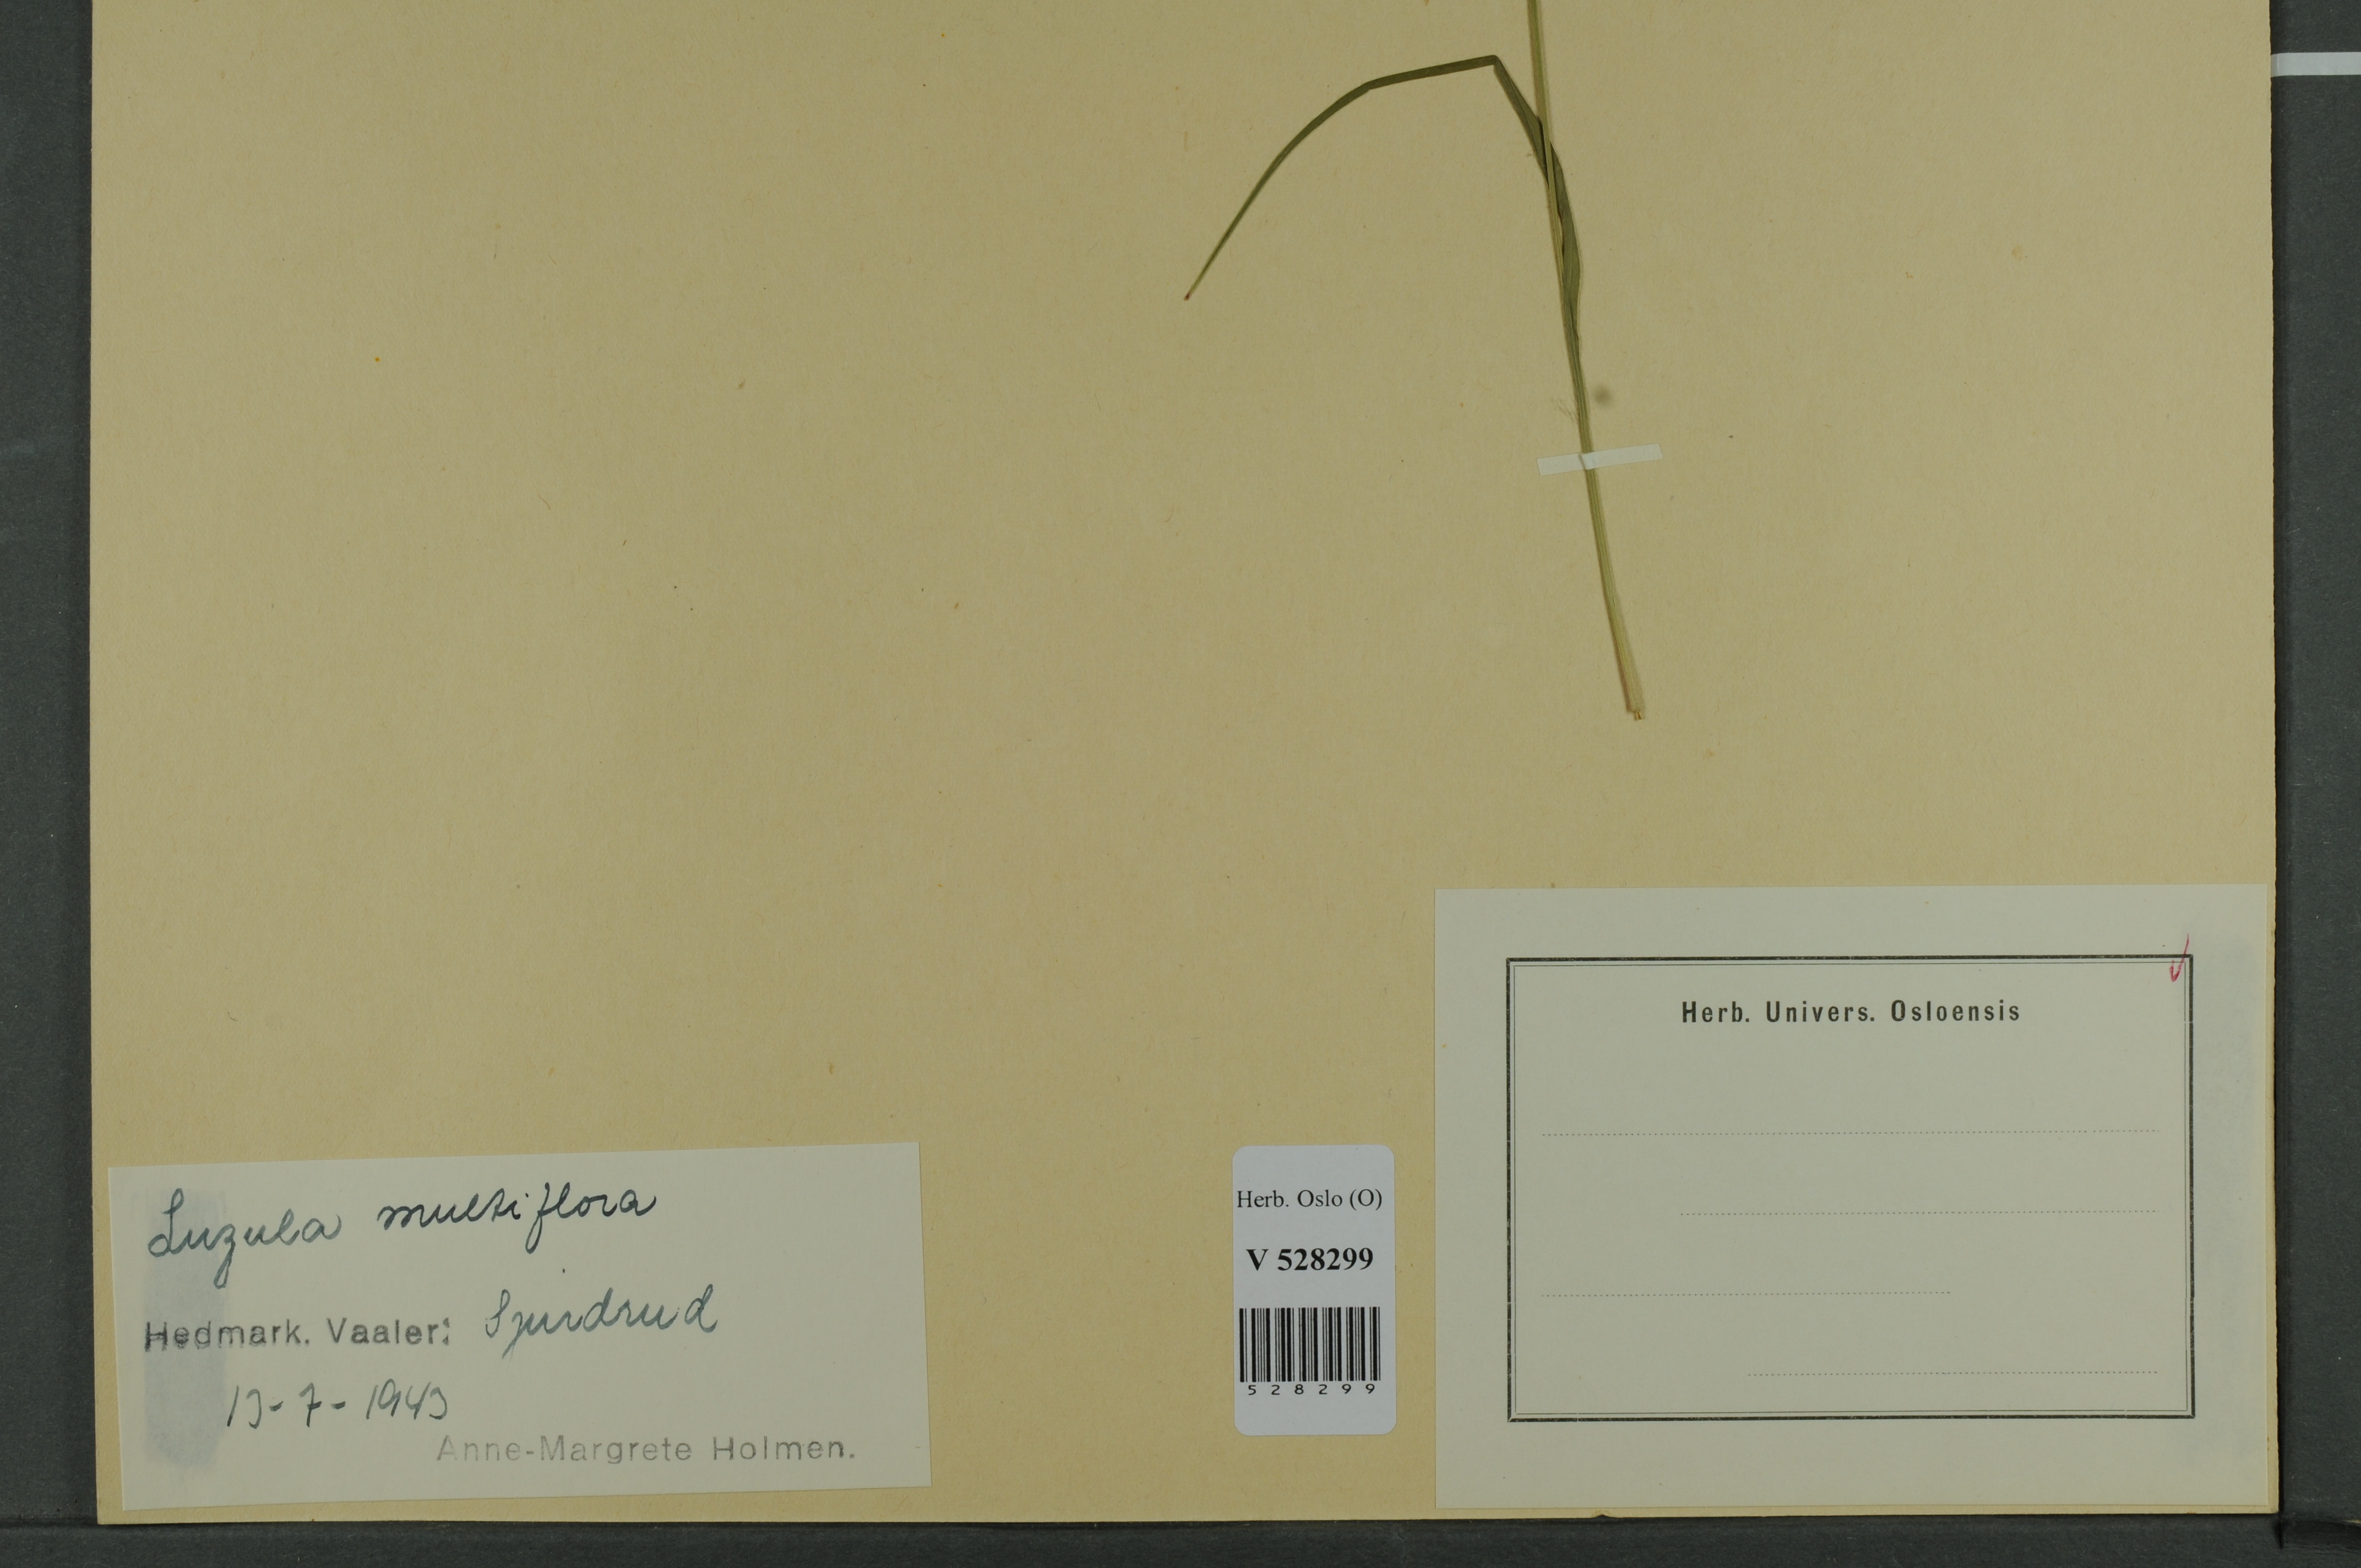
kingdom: Plantae
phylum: Tracheophyta
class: Liliopsida
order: Poales
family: Juncaceae
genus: Luzula
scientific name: Luzula multiflora
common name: Heath wood-rush
